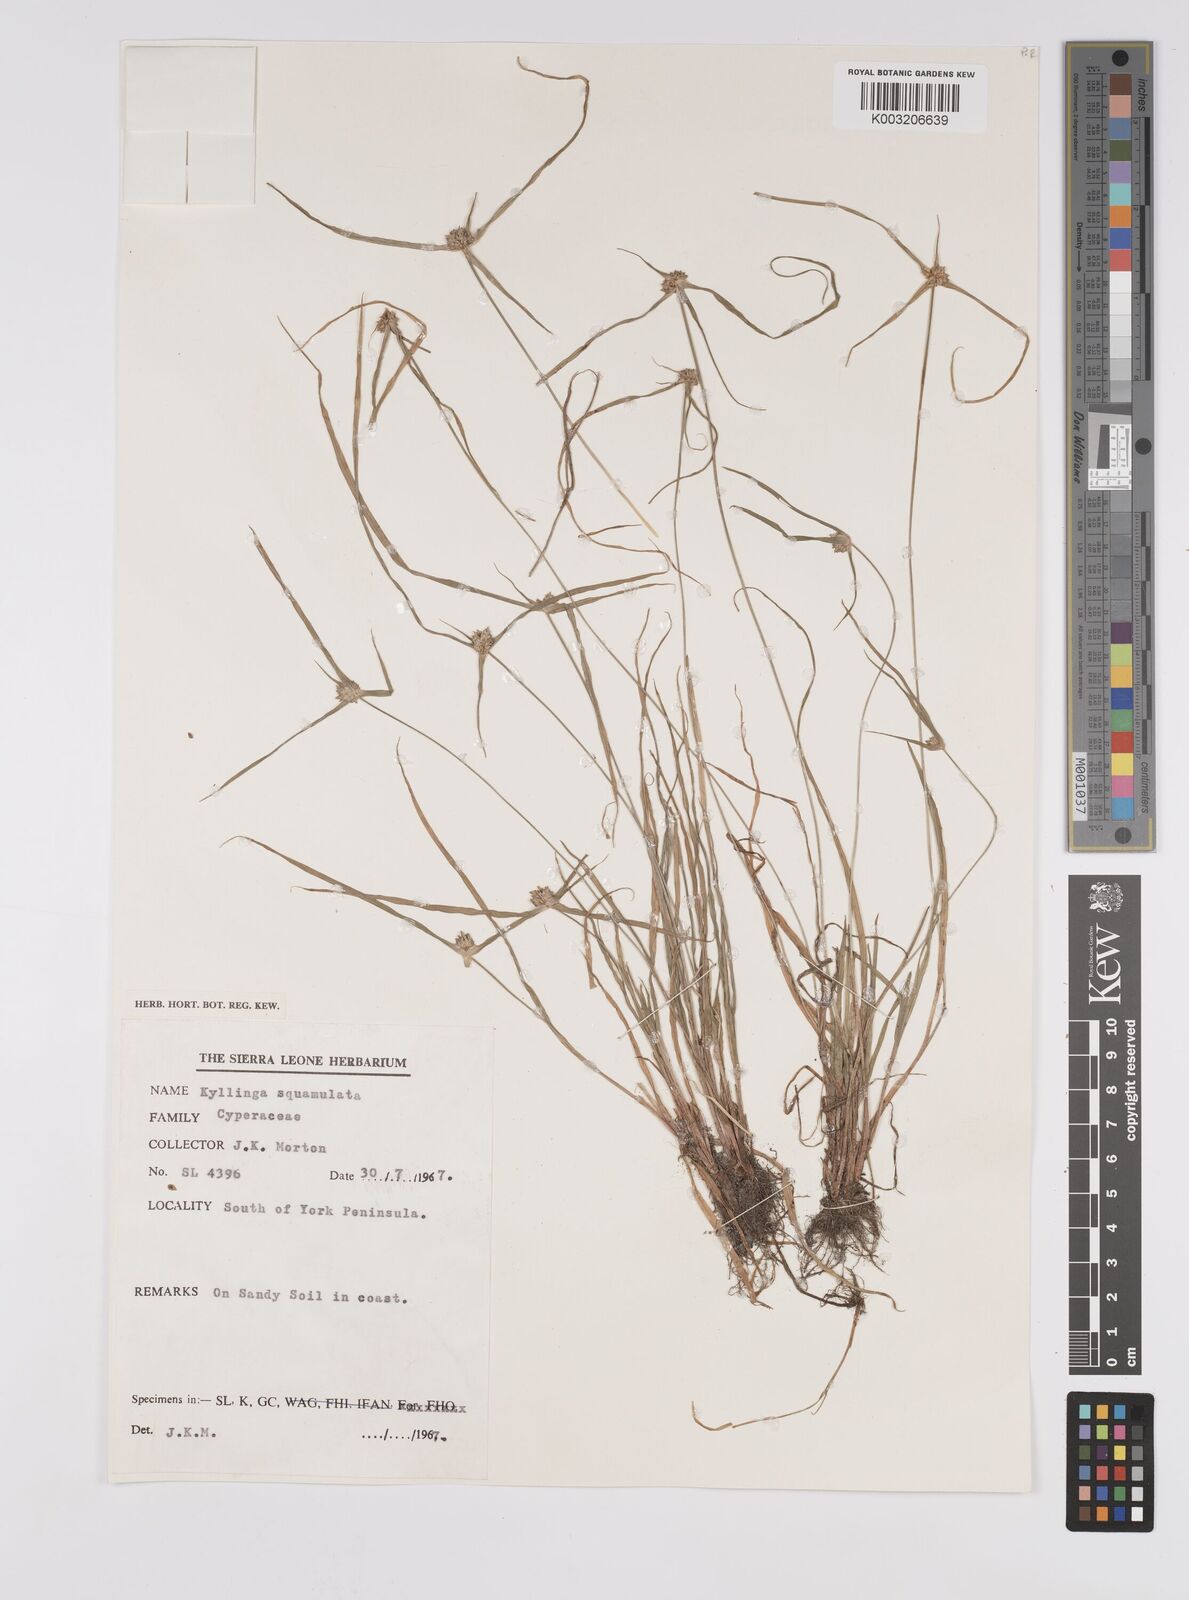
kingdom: Plantae
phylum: Tracheophyta
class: Liliopsida
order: Poales
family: Cyperaceae
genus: Cyperus
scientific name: Cyperus distans
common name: Slender cyperus
